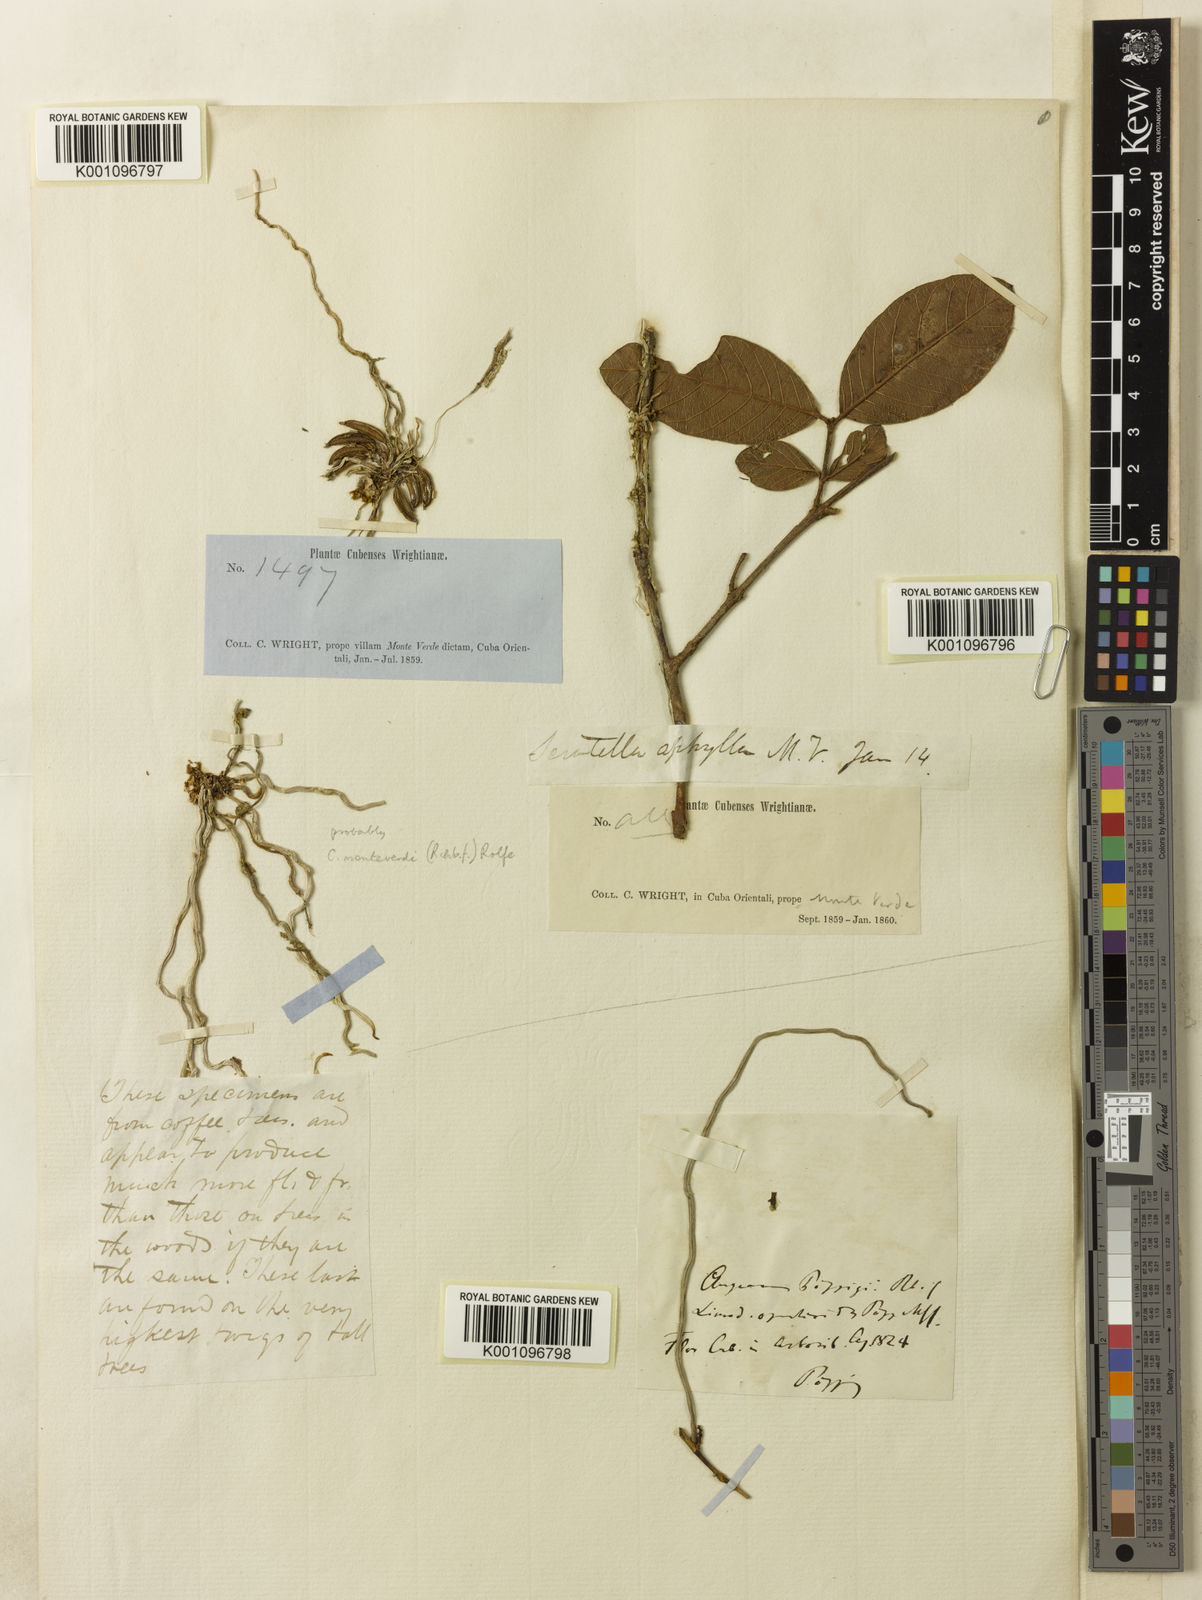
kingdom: Plantae
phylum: Tracheophyta
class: Liliopsida
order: Asparagales
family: Orchidaceae
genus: Dendrophylax
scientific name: Dendrophylax filiformis
